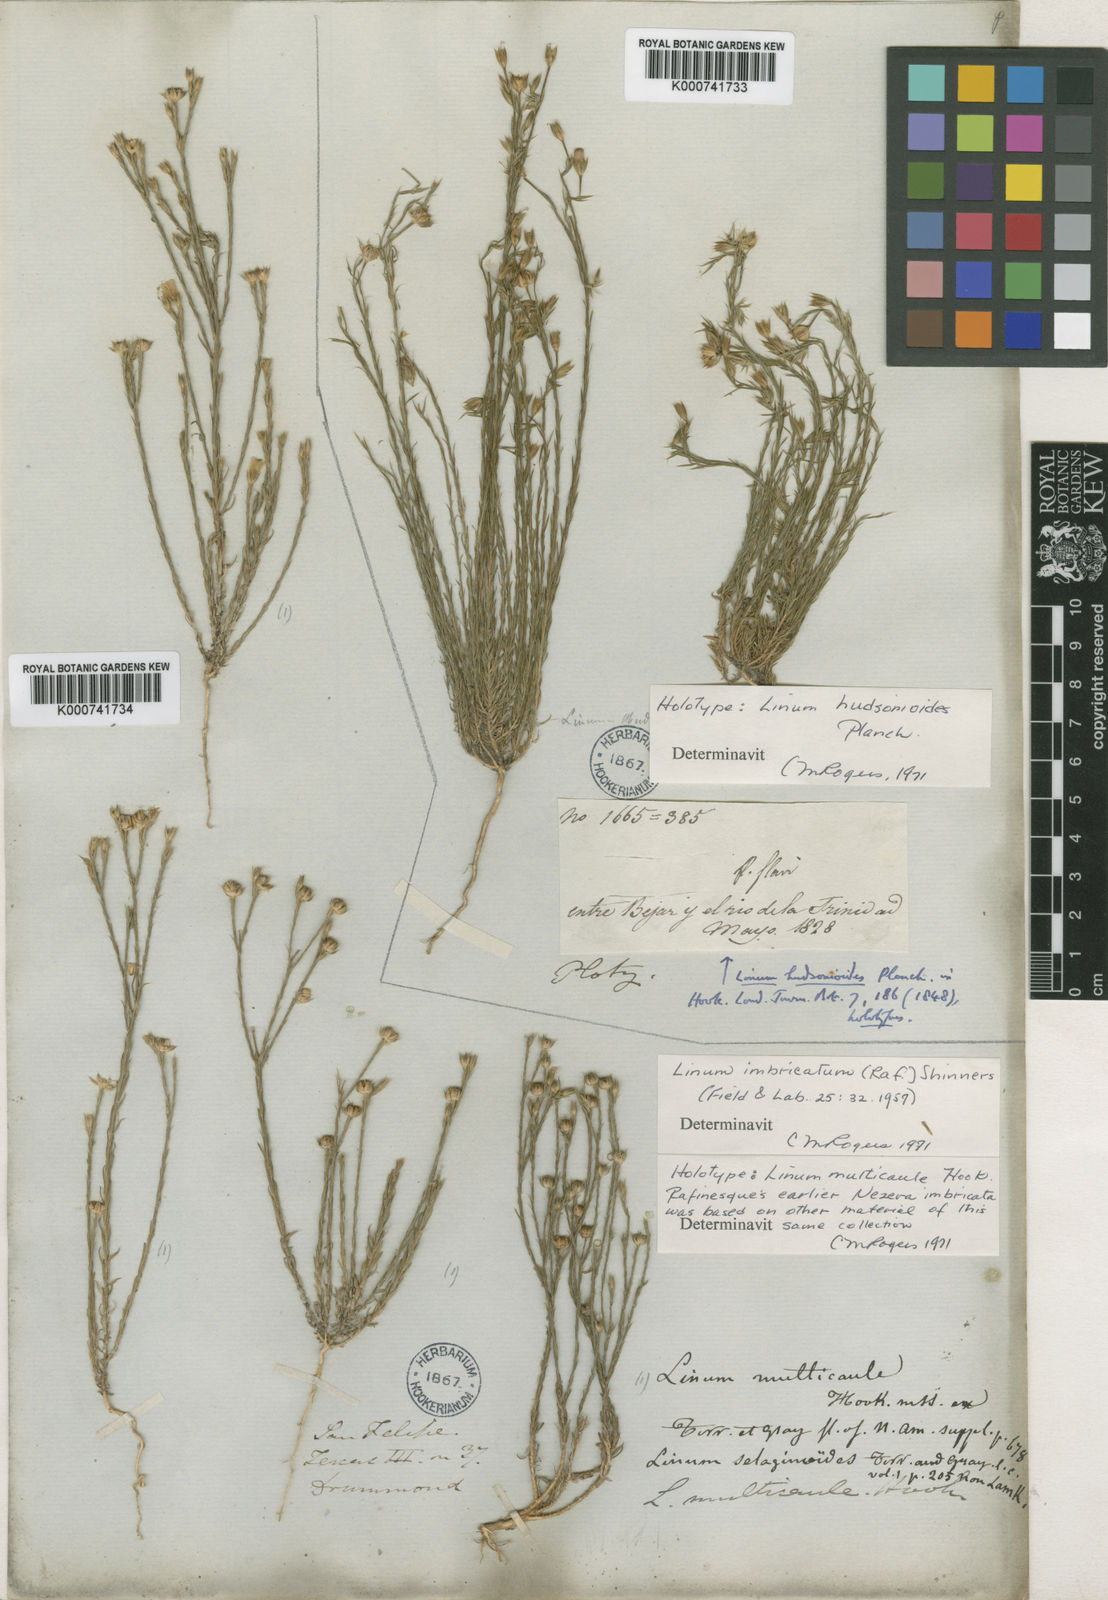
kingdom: Plantae
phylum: Tracheophyta
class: Magnoliopsida
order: Malpighiales
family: Linaceae
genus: Linum
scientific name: Linum imbricatum
